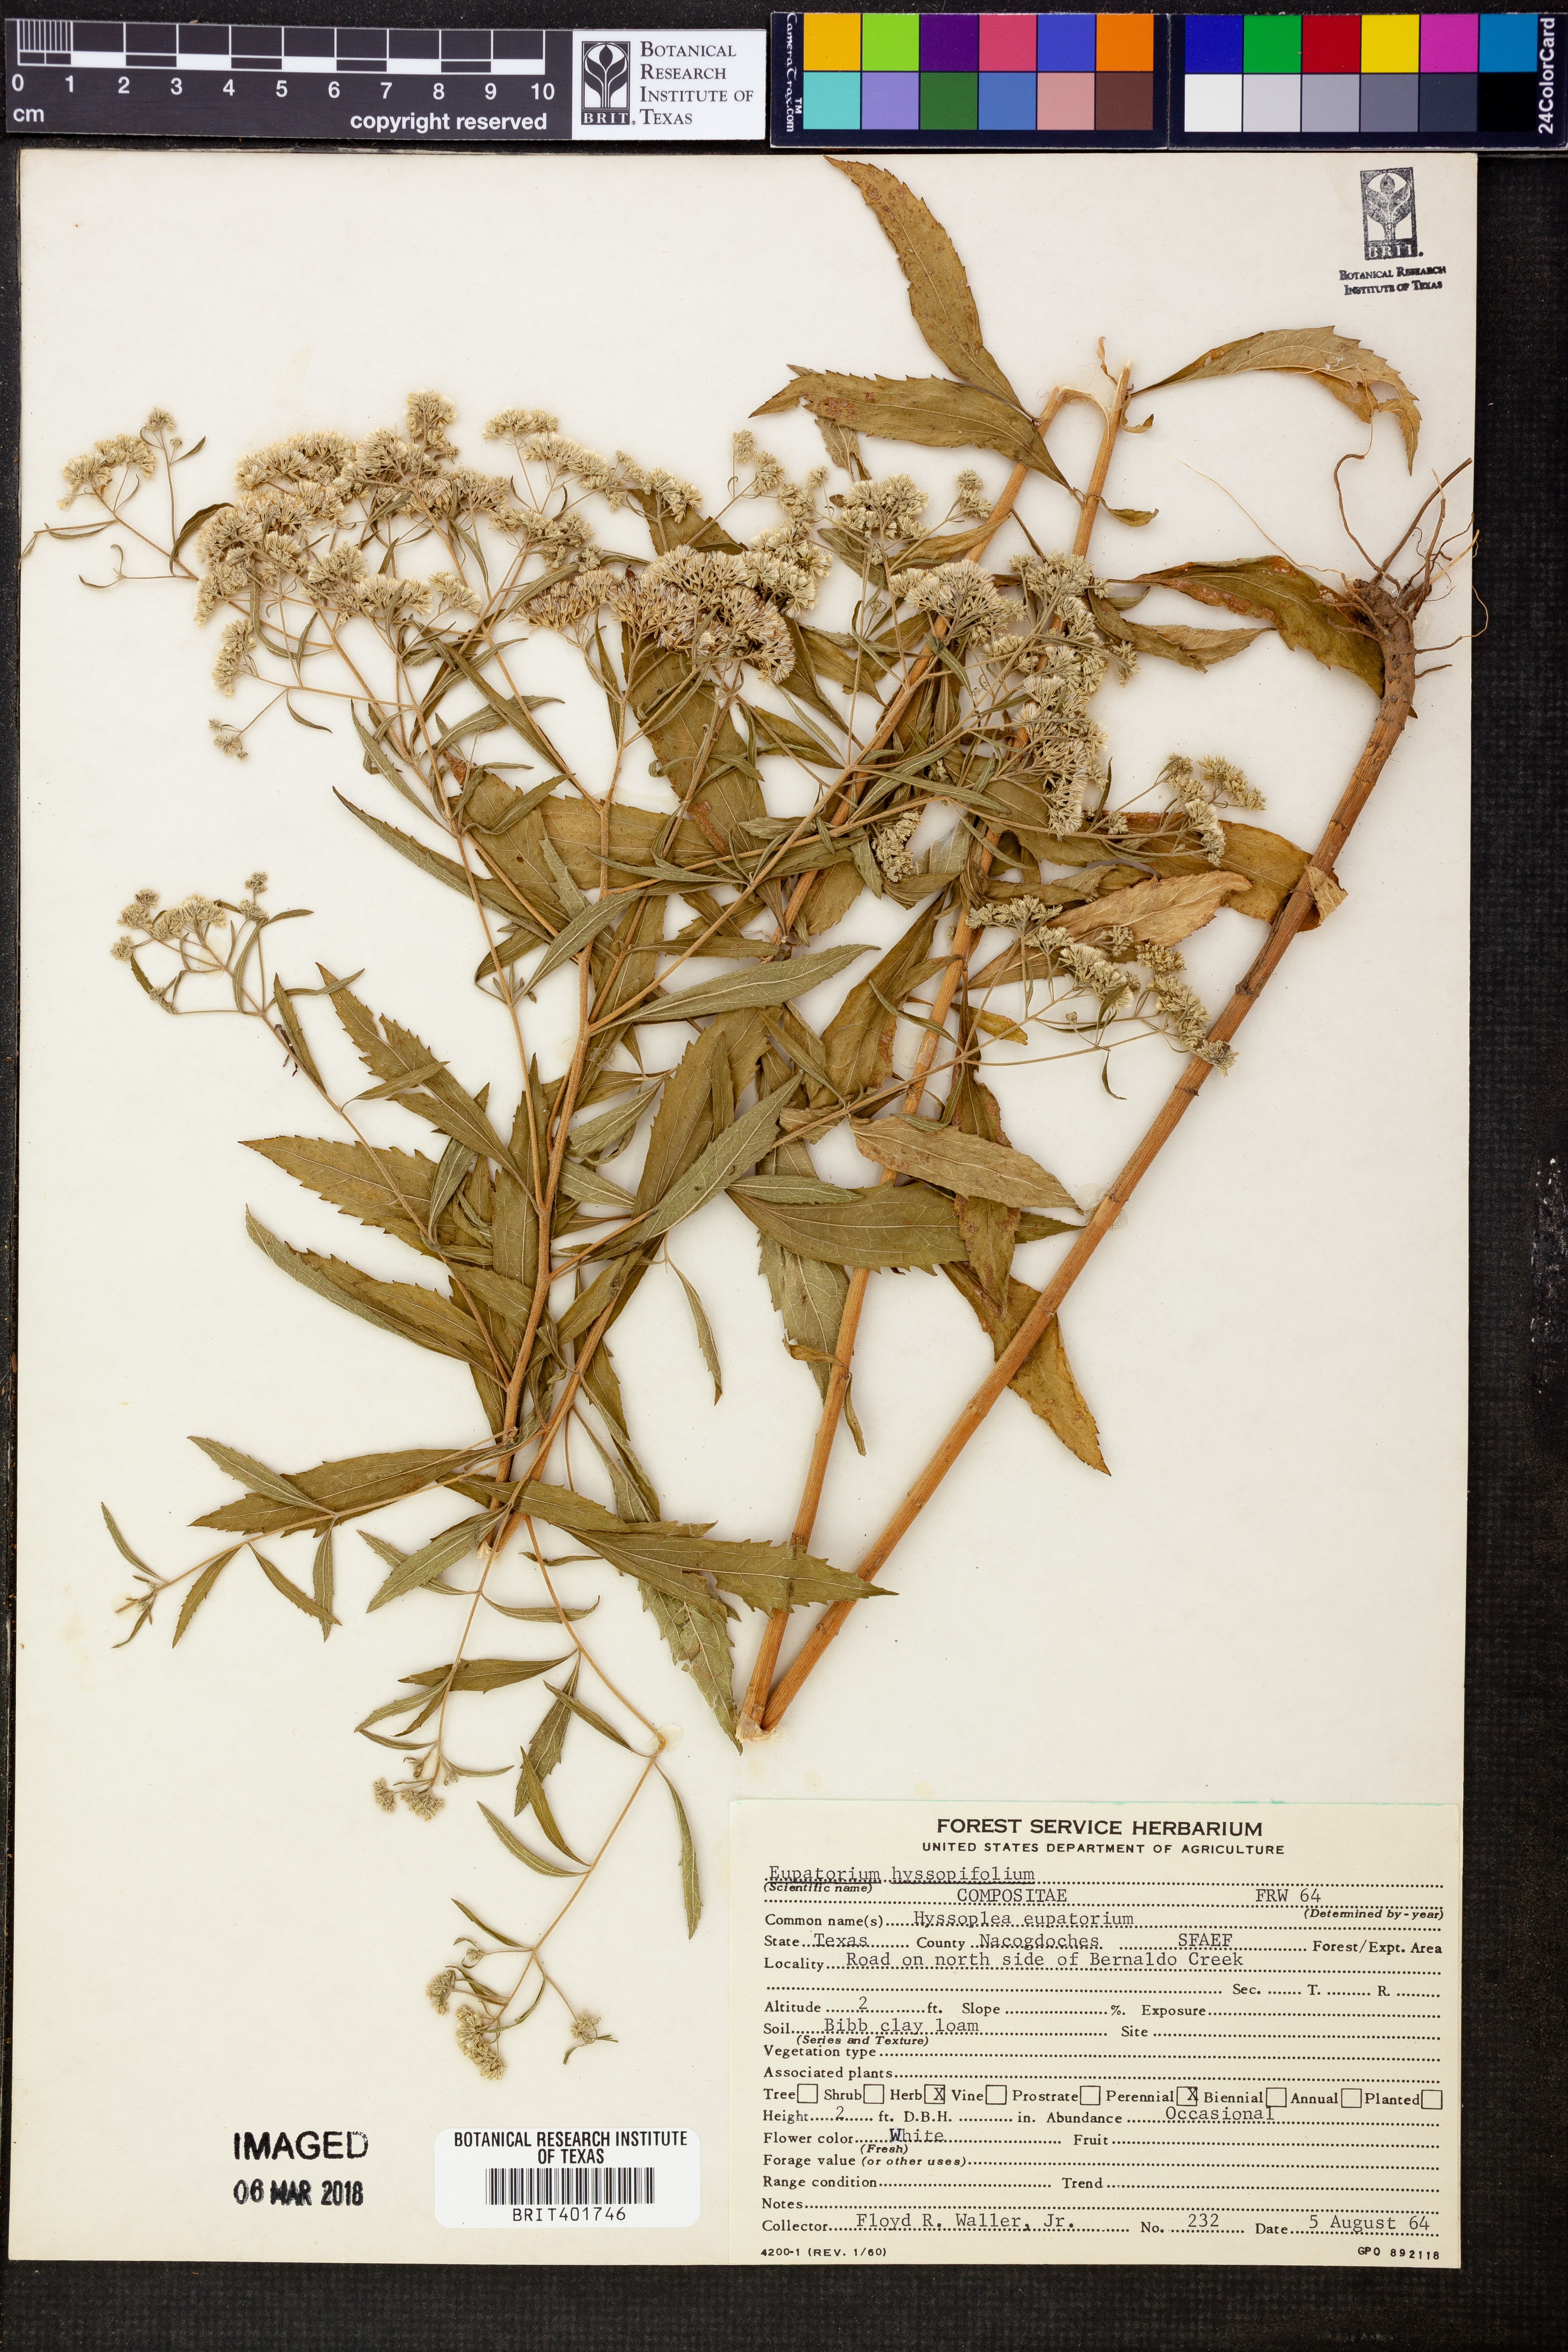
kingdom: Plantae
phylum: Tracheophyta
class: Magnoliopsida
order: Asterales
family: Asteraceae
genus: Eupatorium
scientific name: Eupatorium hyssopifolium
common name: Hyssop-leaf thoroughwort
